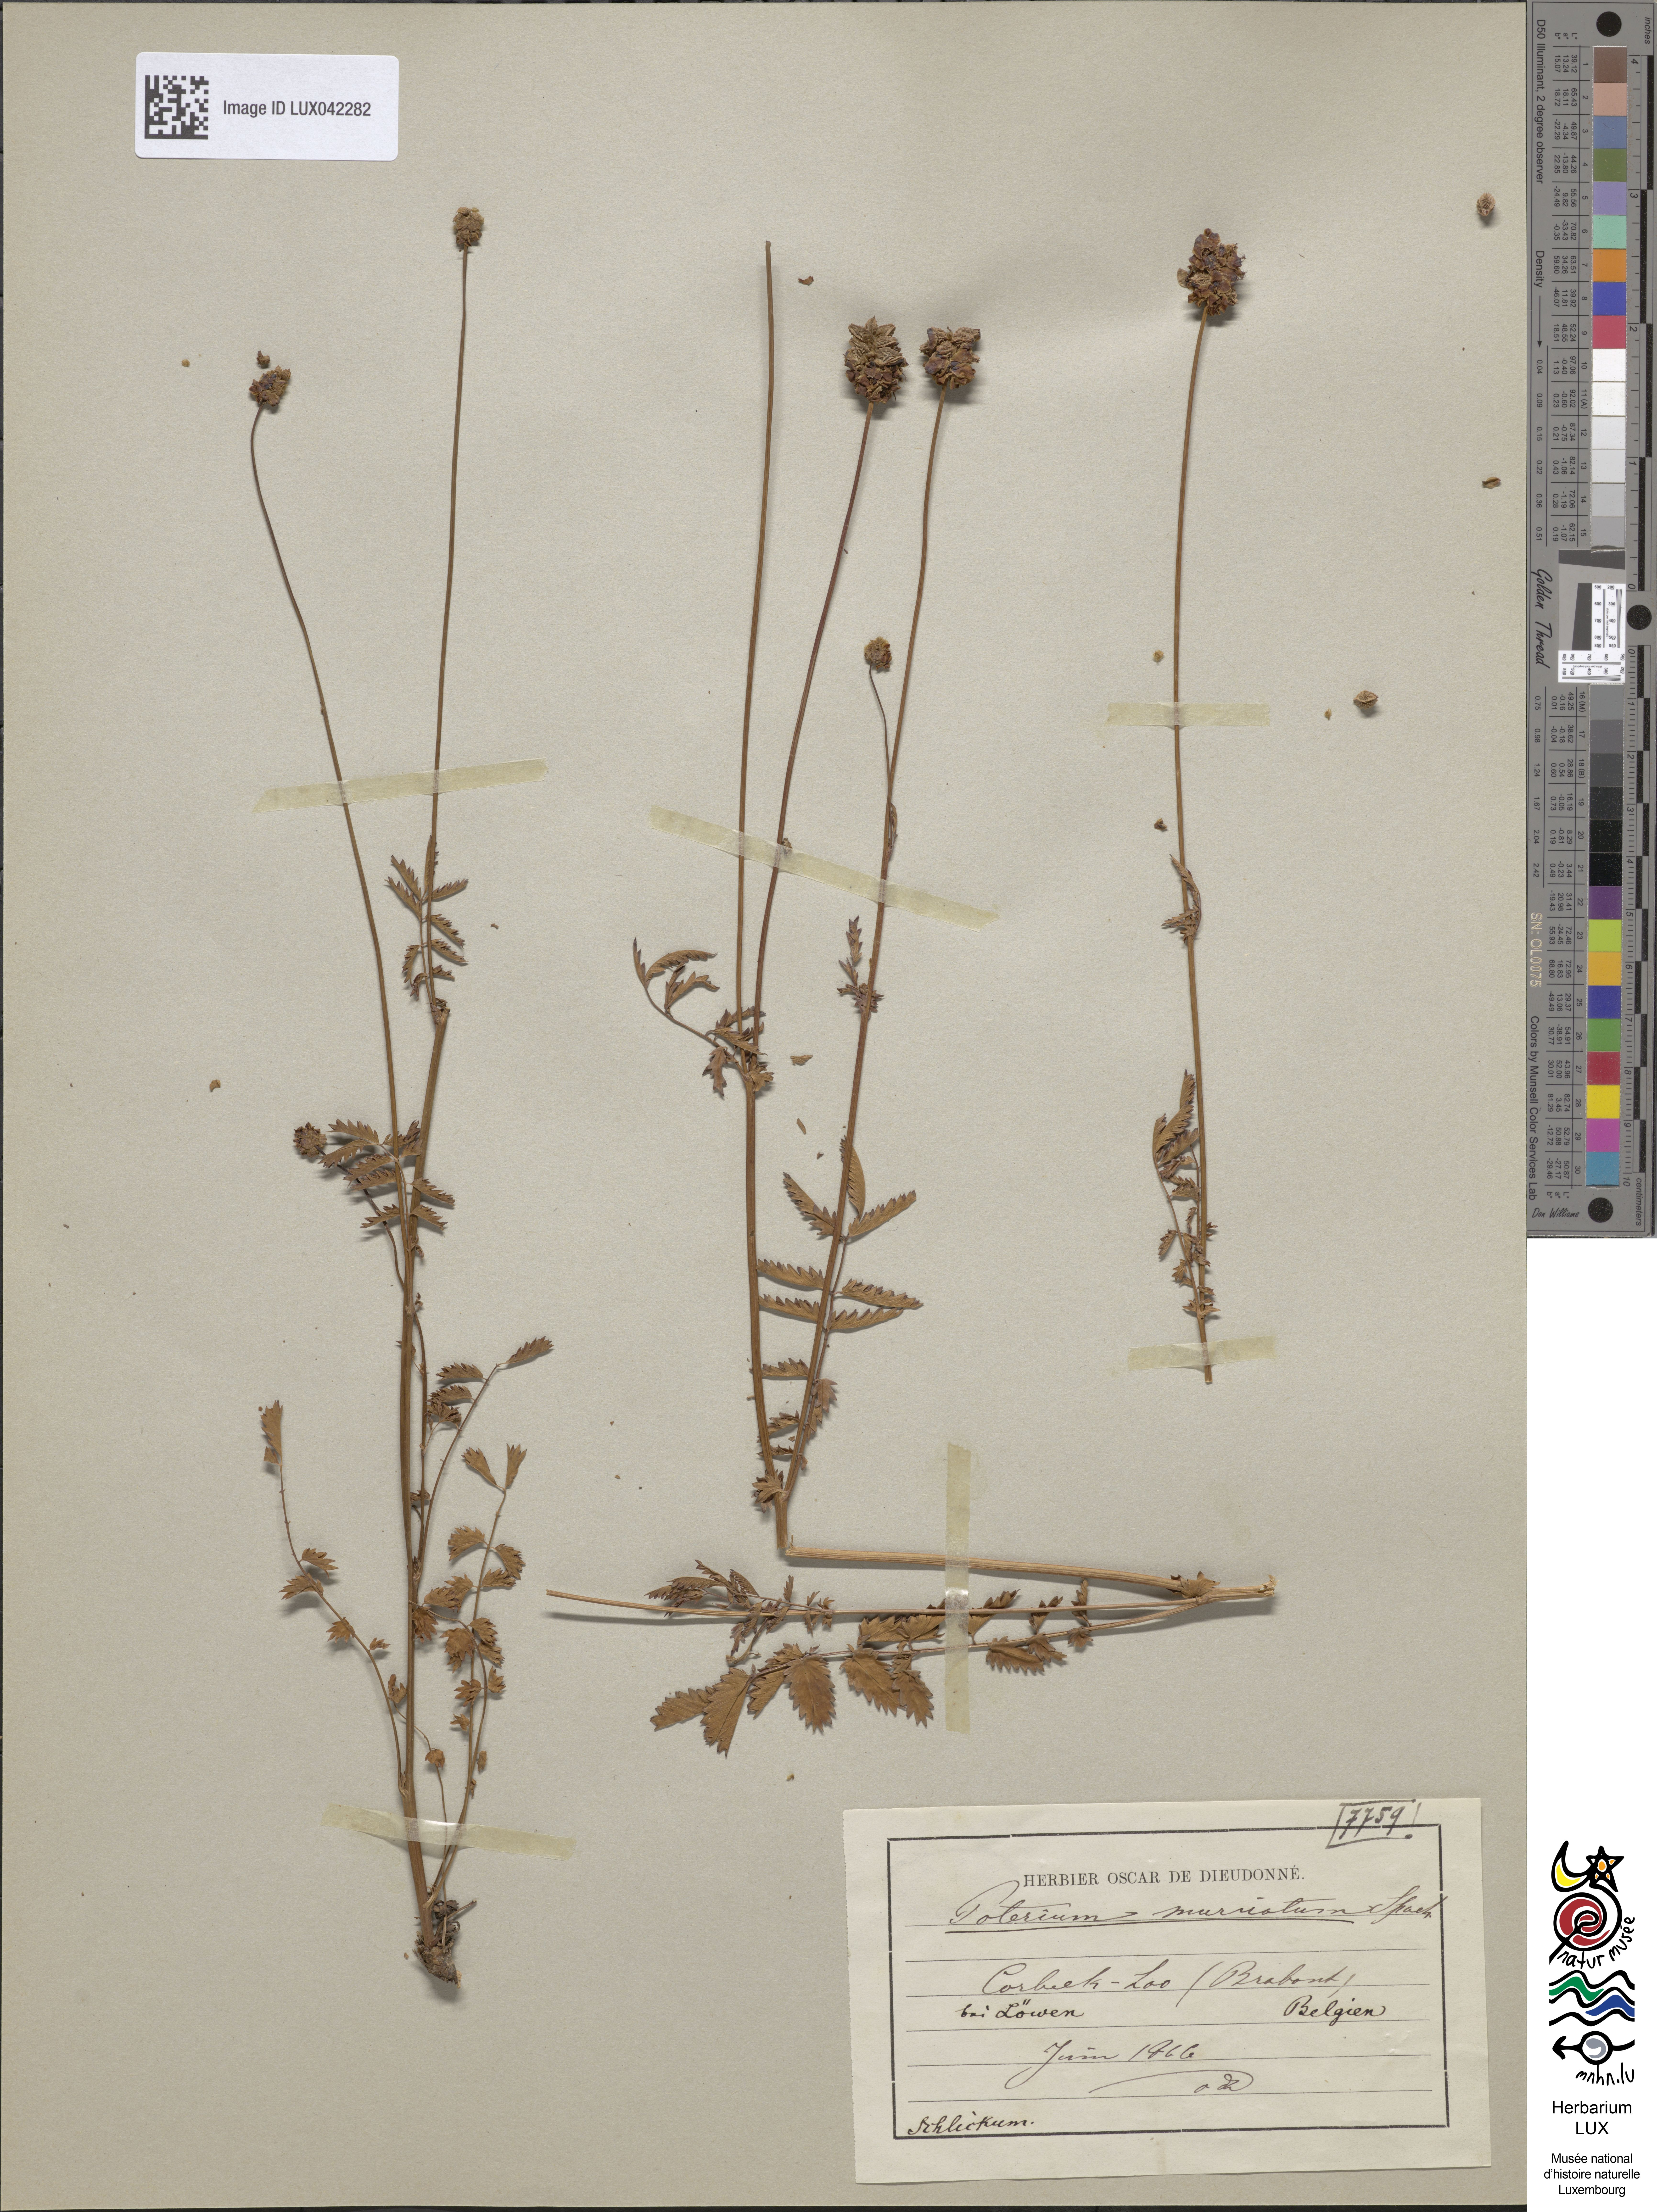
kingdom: Plantae
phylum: Tracheophyta
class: Magnoliopsida
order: Rosales
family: Rosaceae
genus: Poterium
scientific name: Poterium sanguisorba
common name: Salad burnet
